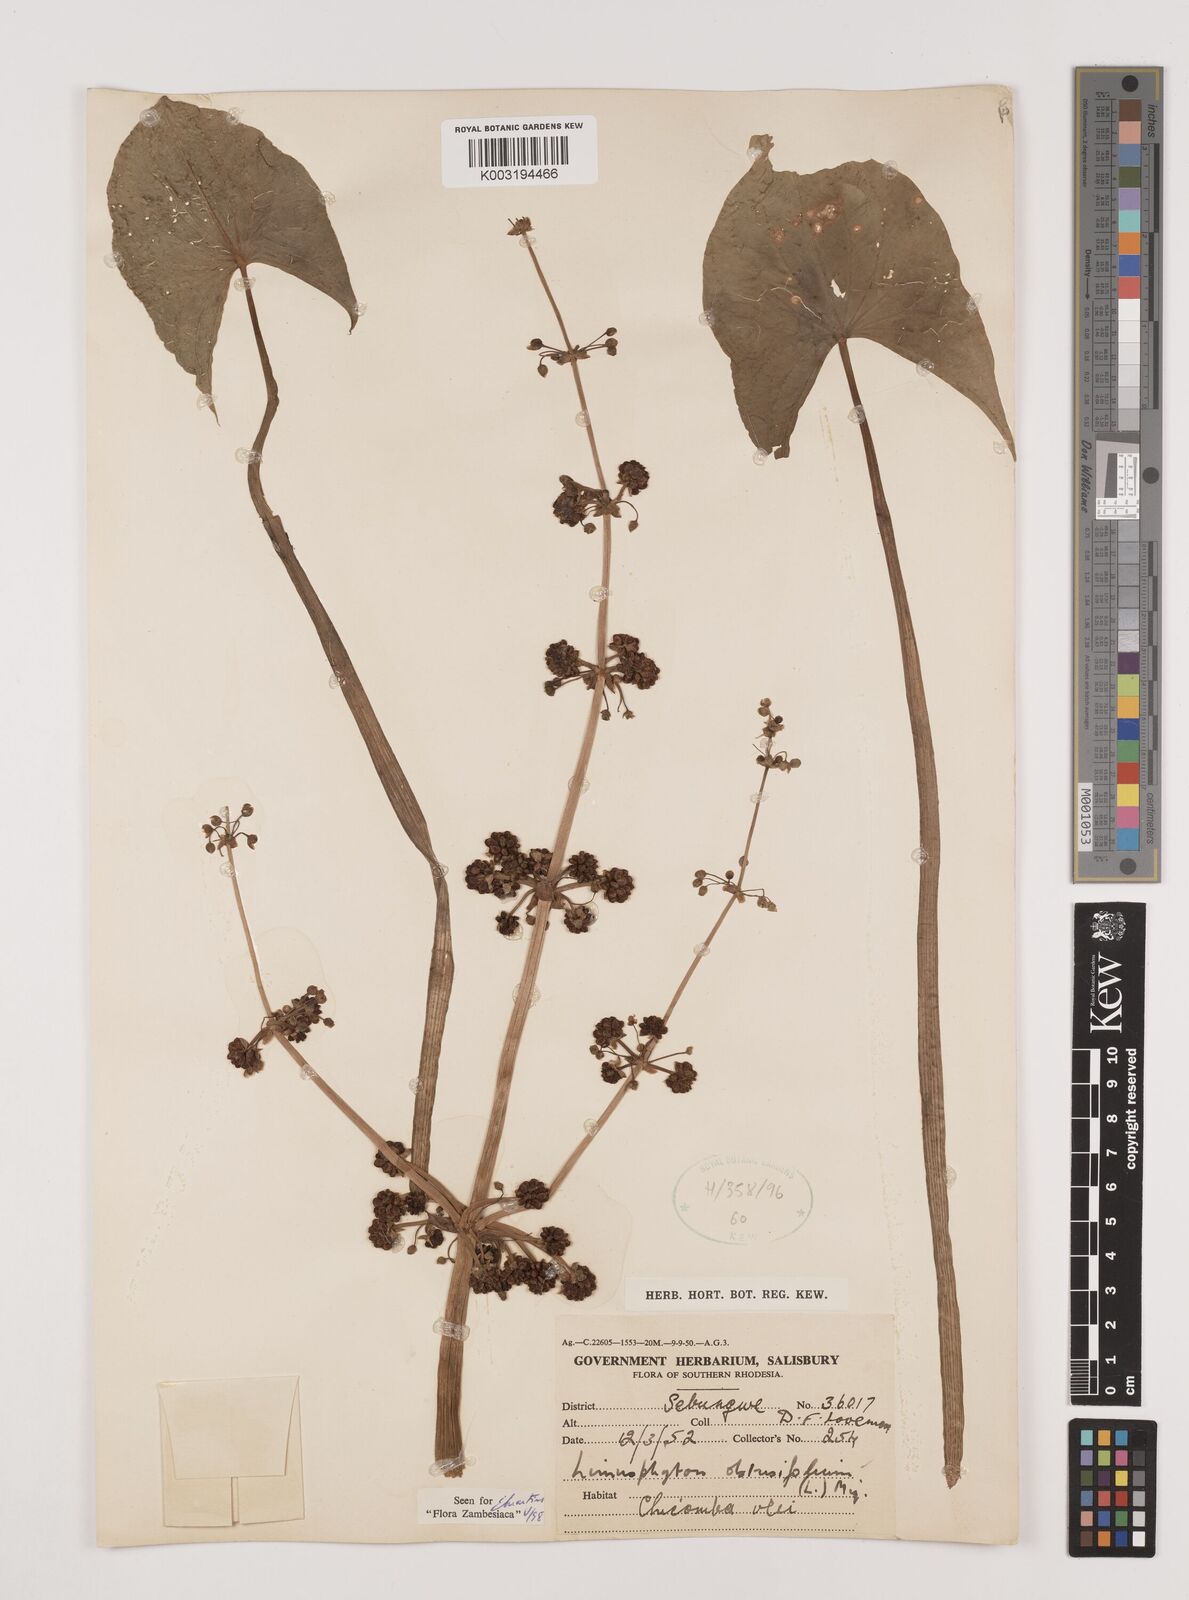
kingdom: Plantae
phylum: Tracheophyta
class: Liliopsida
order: Alismatales
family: Alismataceae
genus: Limnophyton
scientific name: Limnophyton obtusifolium
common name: Arrow head
